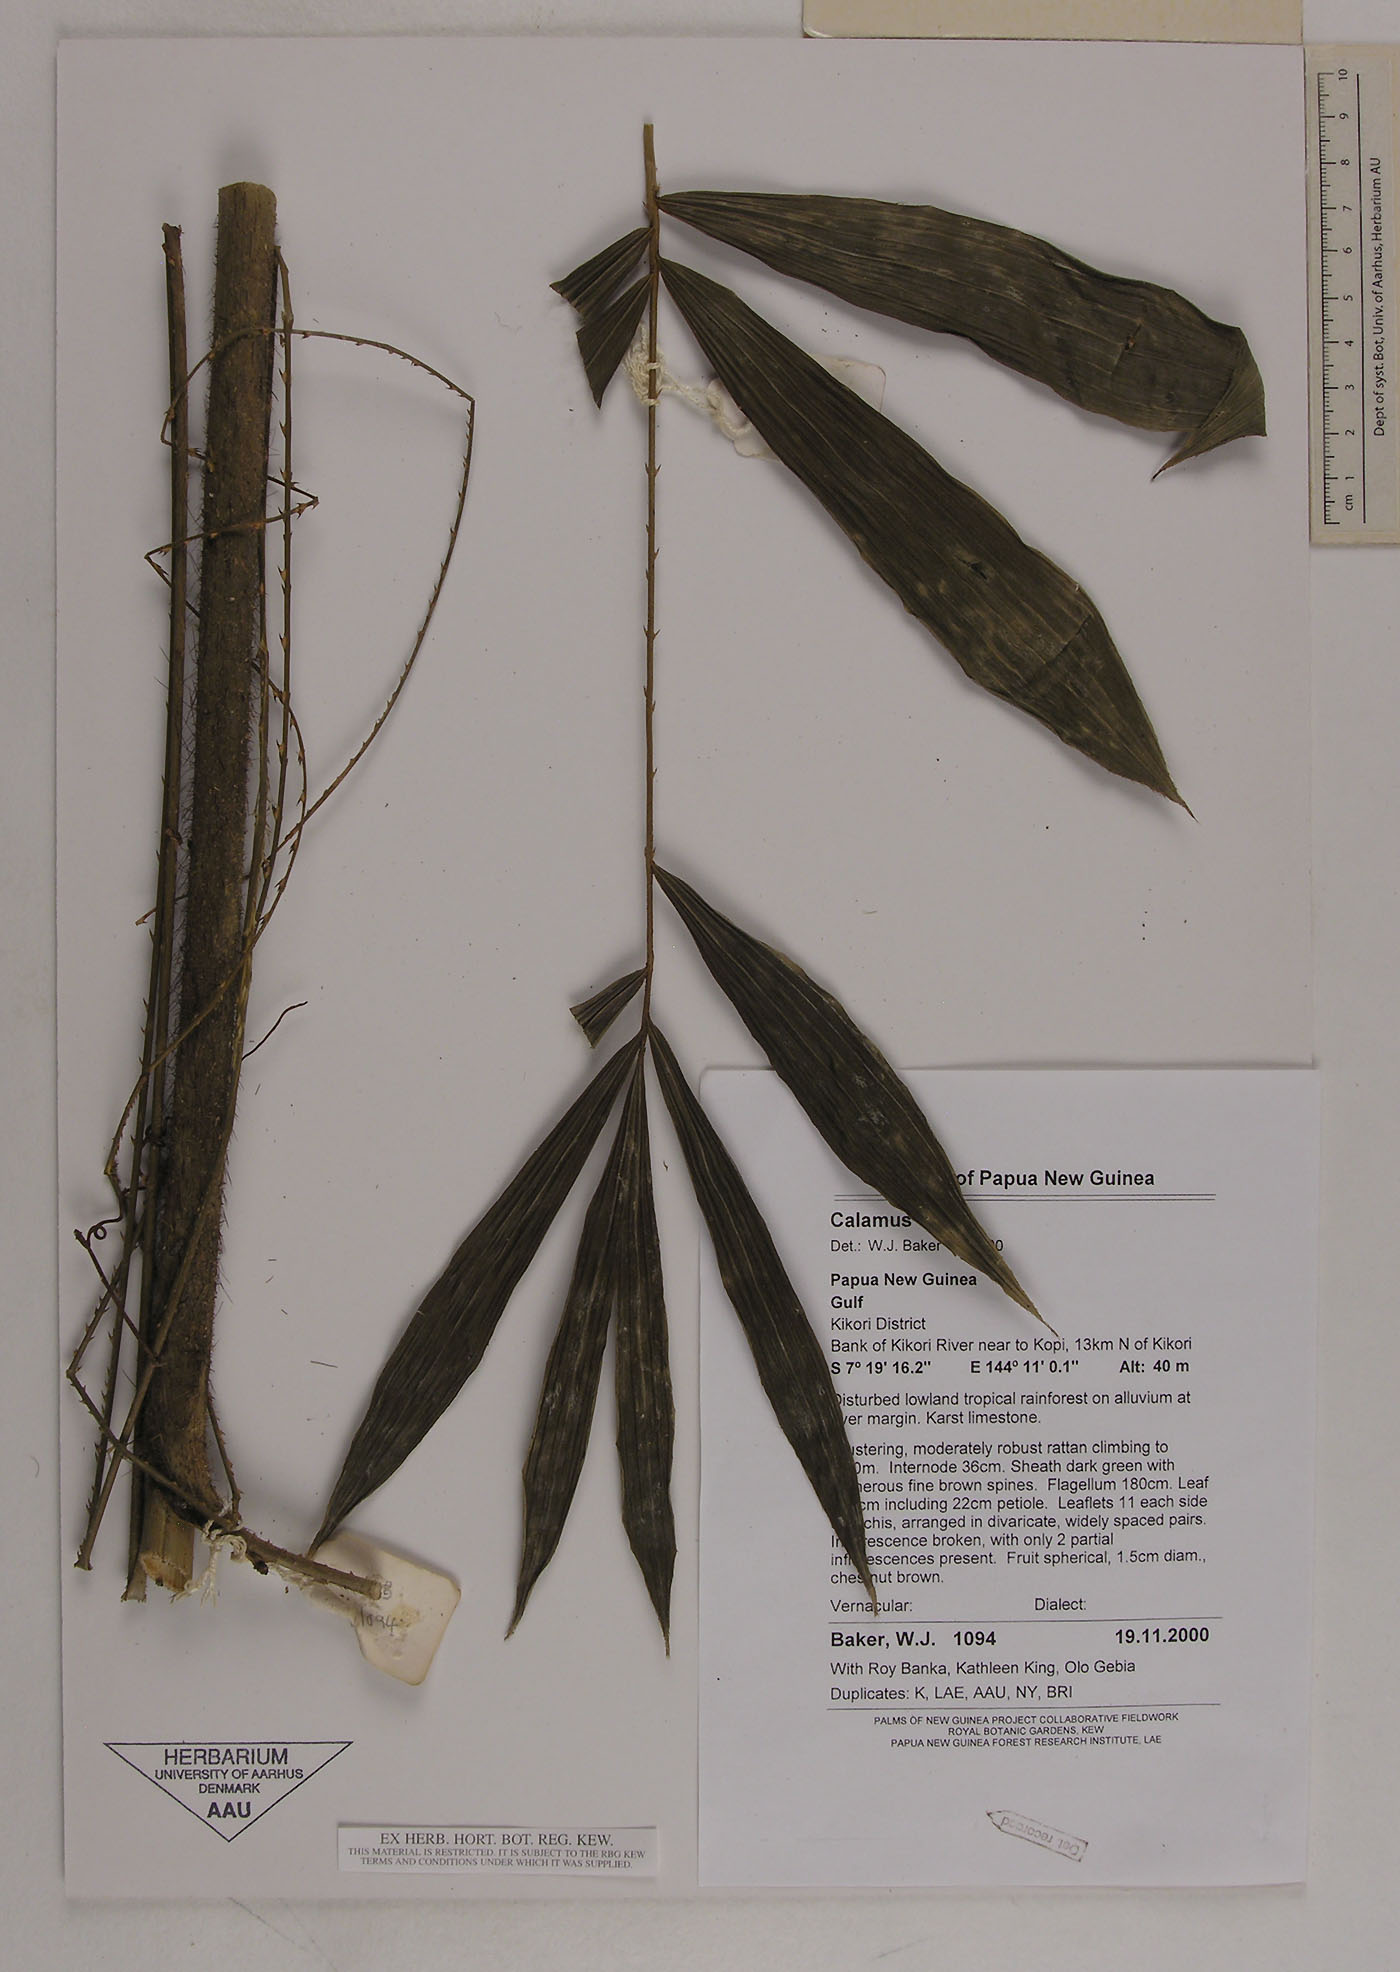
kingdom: Plantae
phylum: Tracheophyta
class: Liliopsida
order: Arecales
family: Arecaceae
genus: Calamus
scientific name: Calamus
